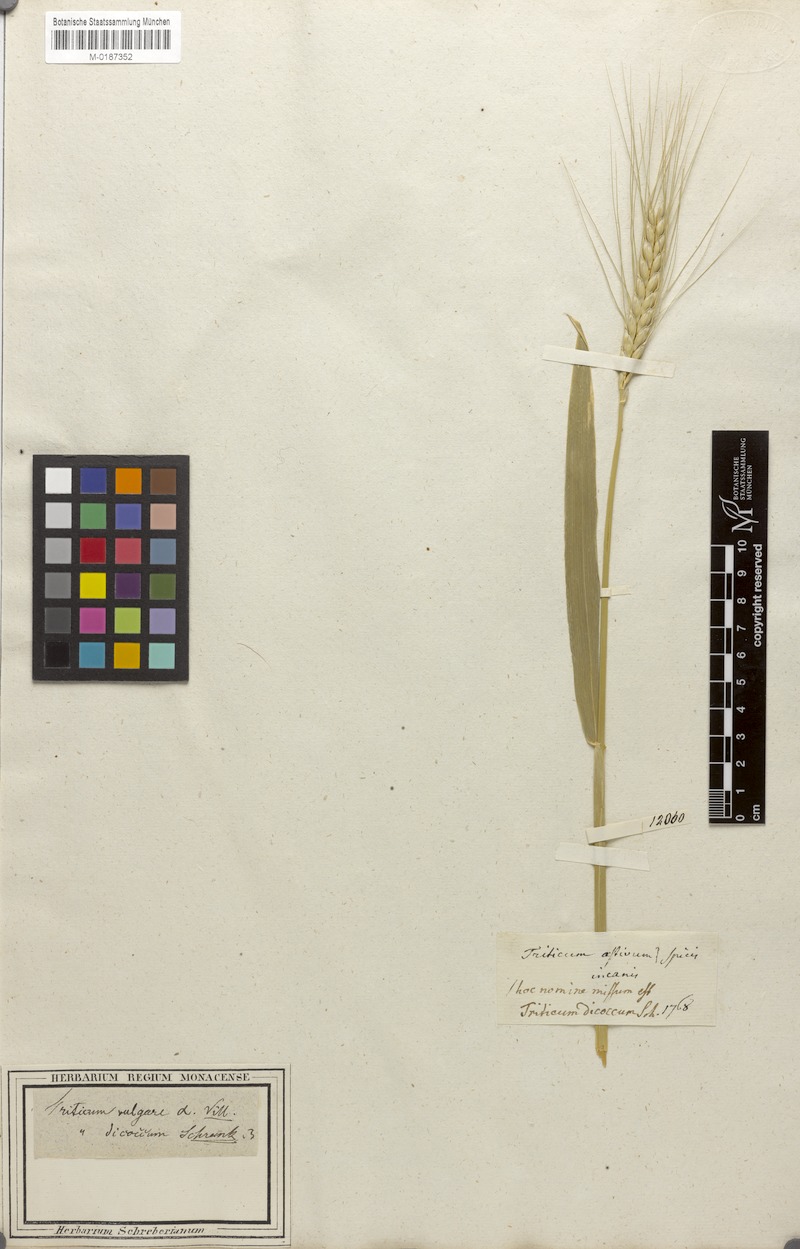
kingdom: Plantae
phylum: Tracheophyta
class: Liliopsida
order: Poales
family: Poaceae
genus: Triticum
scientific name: Triticum turgidum
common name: Rivet wheat
